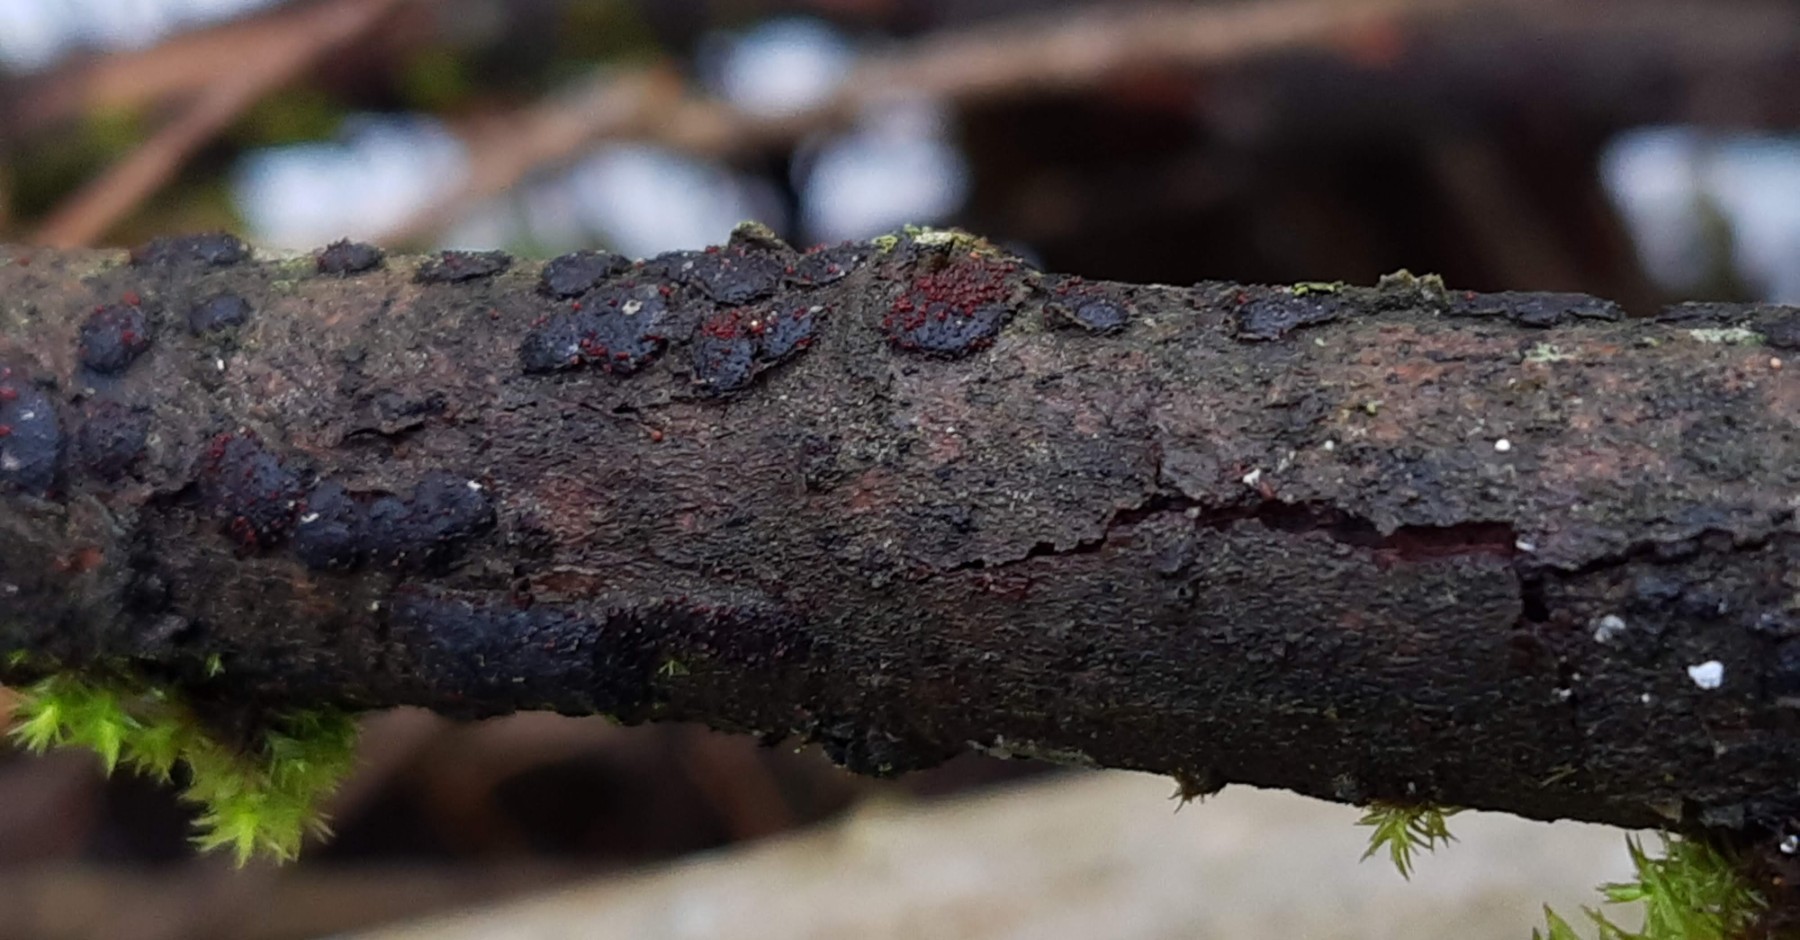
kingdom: Fungi
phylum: Ascomycota
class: Sordariomycetes
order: Hypocreales
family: Nectriaceae
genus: Dialonectria
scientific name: Dialonectria diatrypicola
